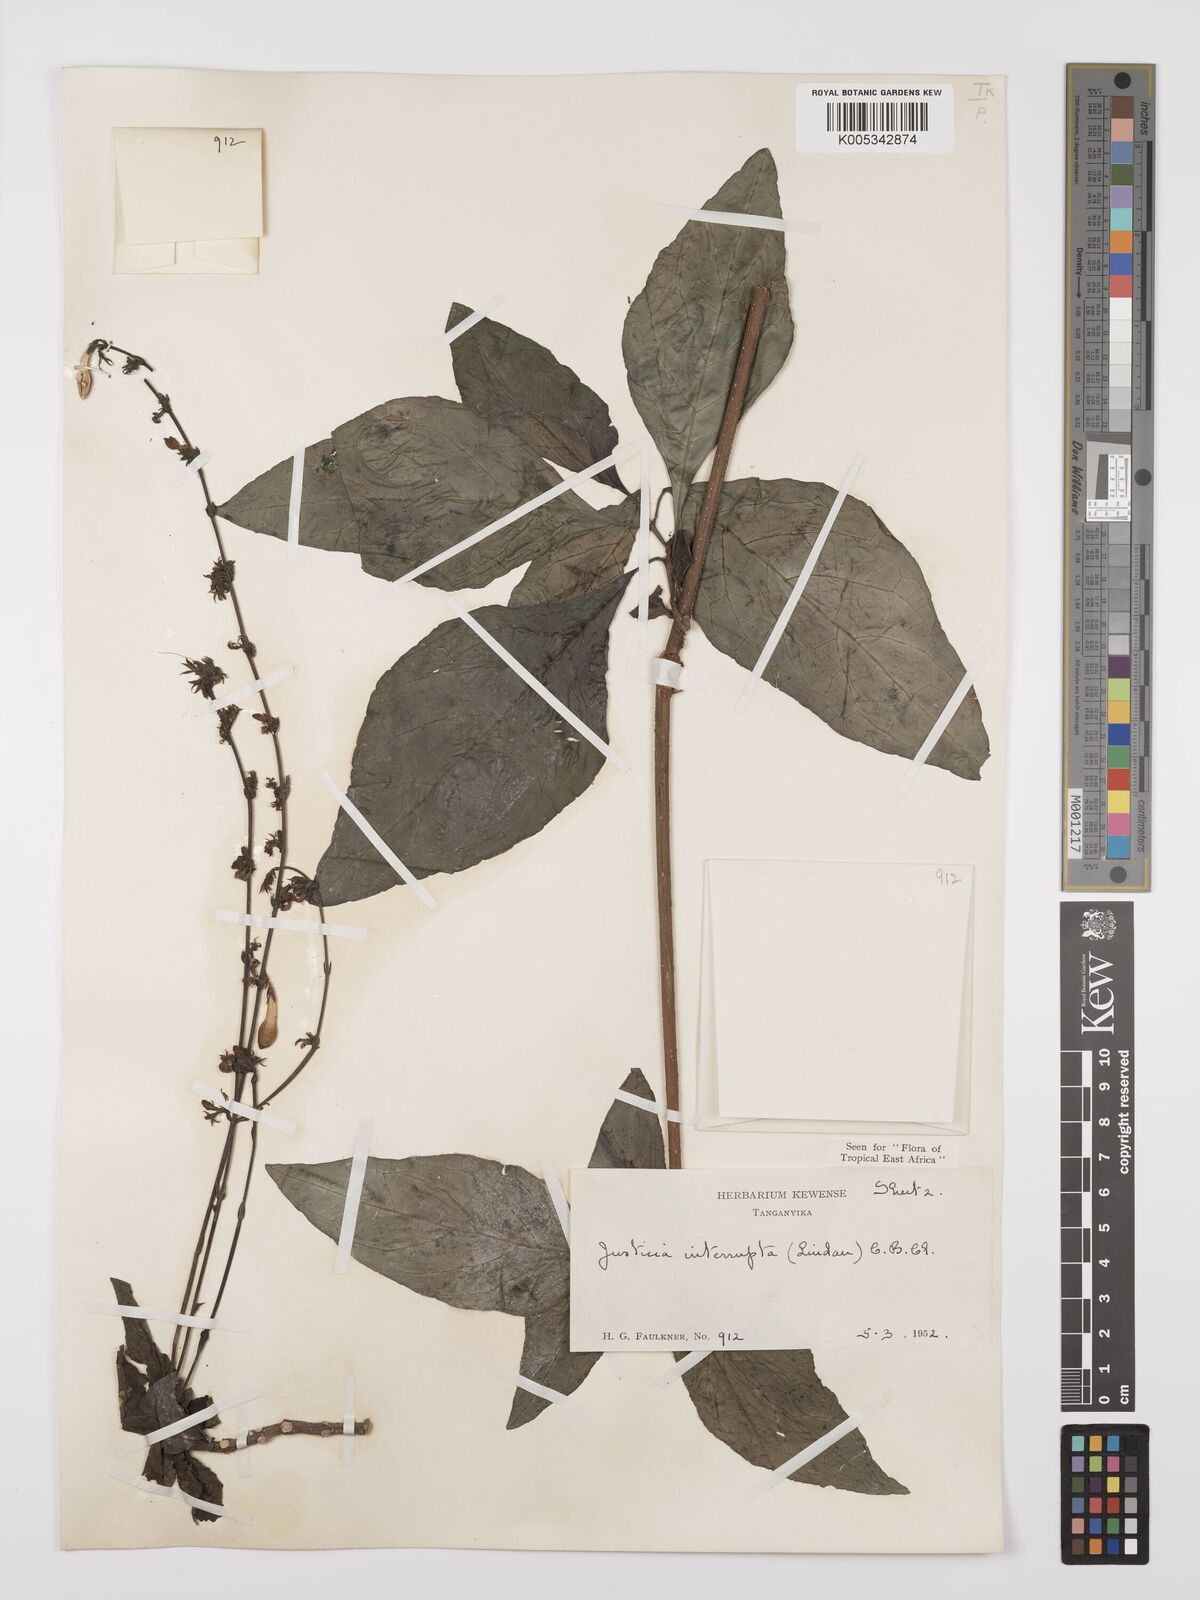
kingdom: Plantae
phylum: Tracheophyta
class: Magnoliopsida
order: Lamiales
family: Acanthaceae
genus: Justicia
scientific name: Justicia plectranthoides
